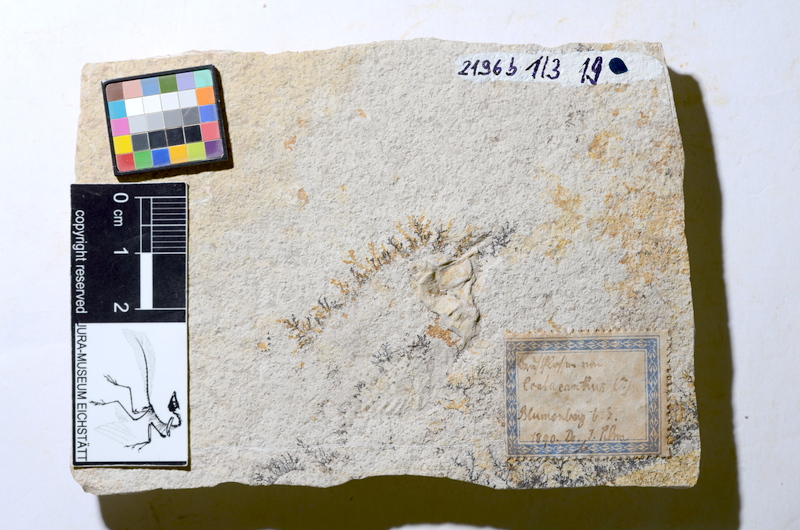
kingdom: Animalia
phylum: Chordata
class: Coelacanthi
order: Coelacanthiformes
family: Coelacanthidae
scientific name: Coelacanthidae
